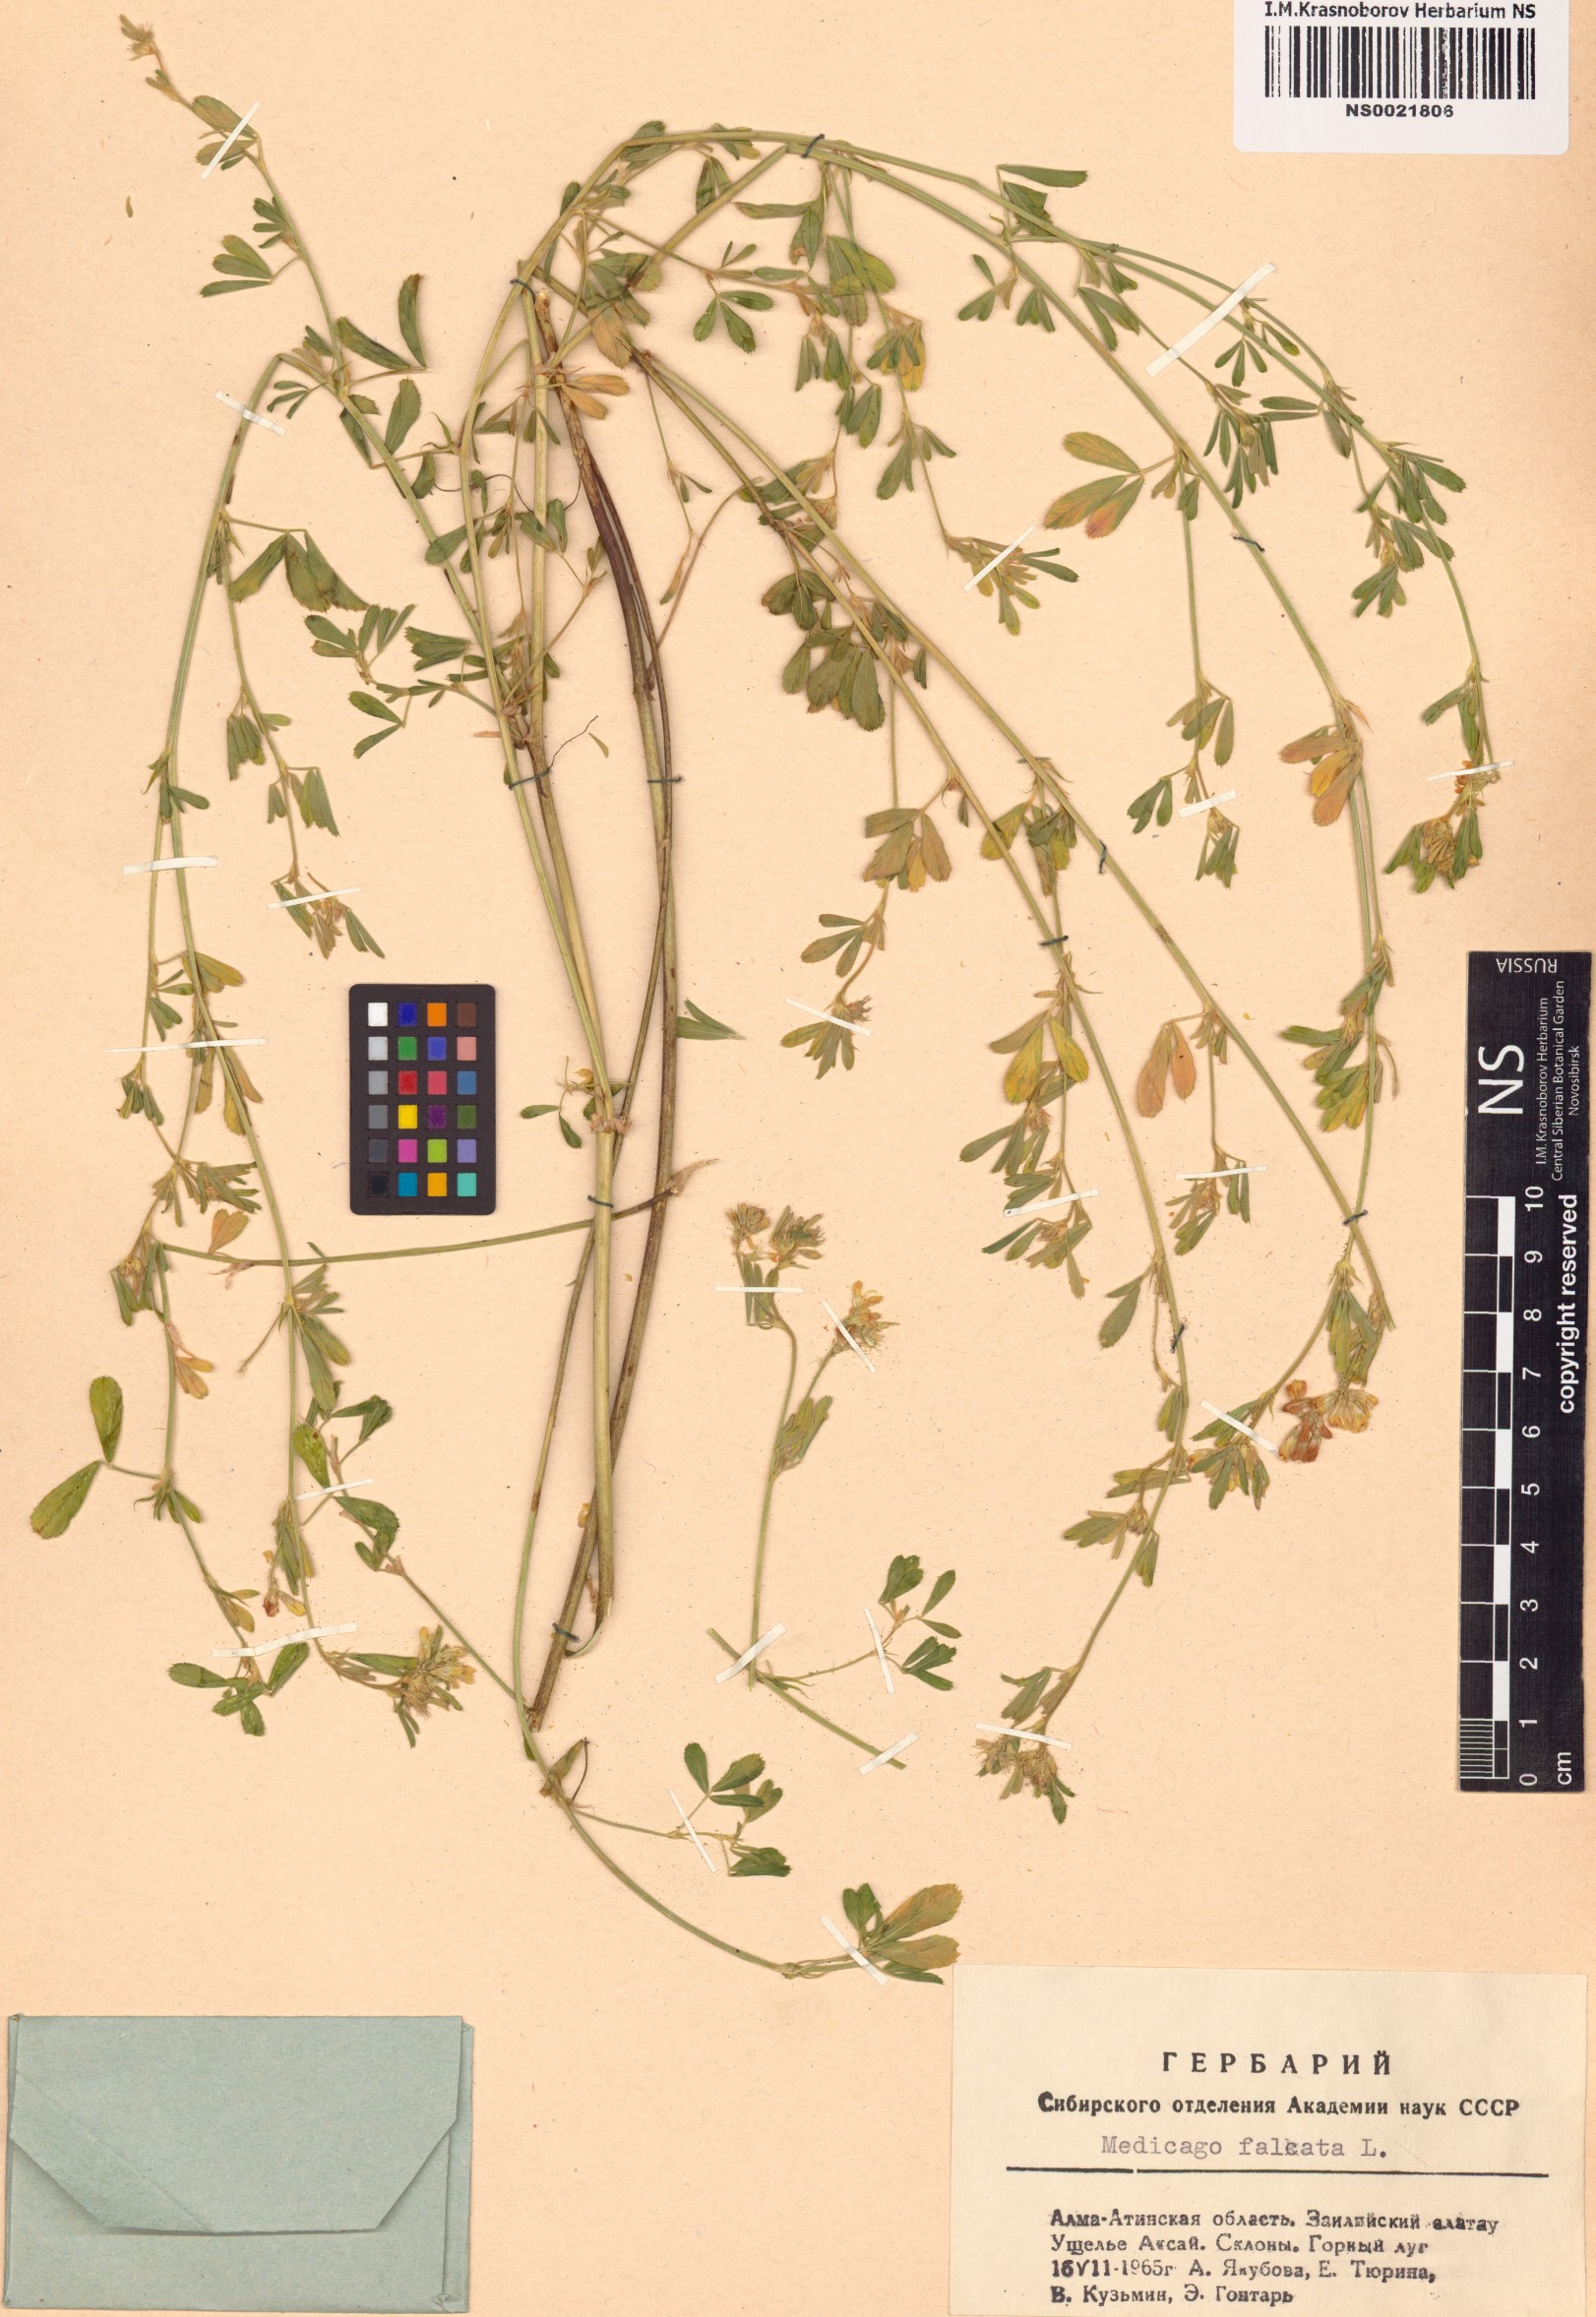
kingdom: Plantae
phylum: Tracheophyta
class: Magnoliopsida
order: Fabales
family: Fabaceae
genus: Medicago
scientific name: Medicago falcata
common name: Sickle medick
